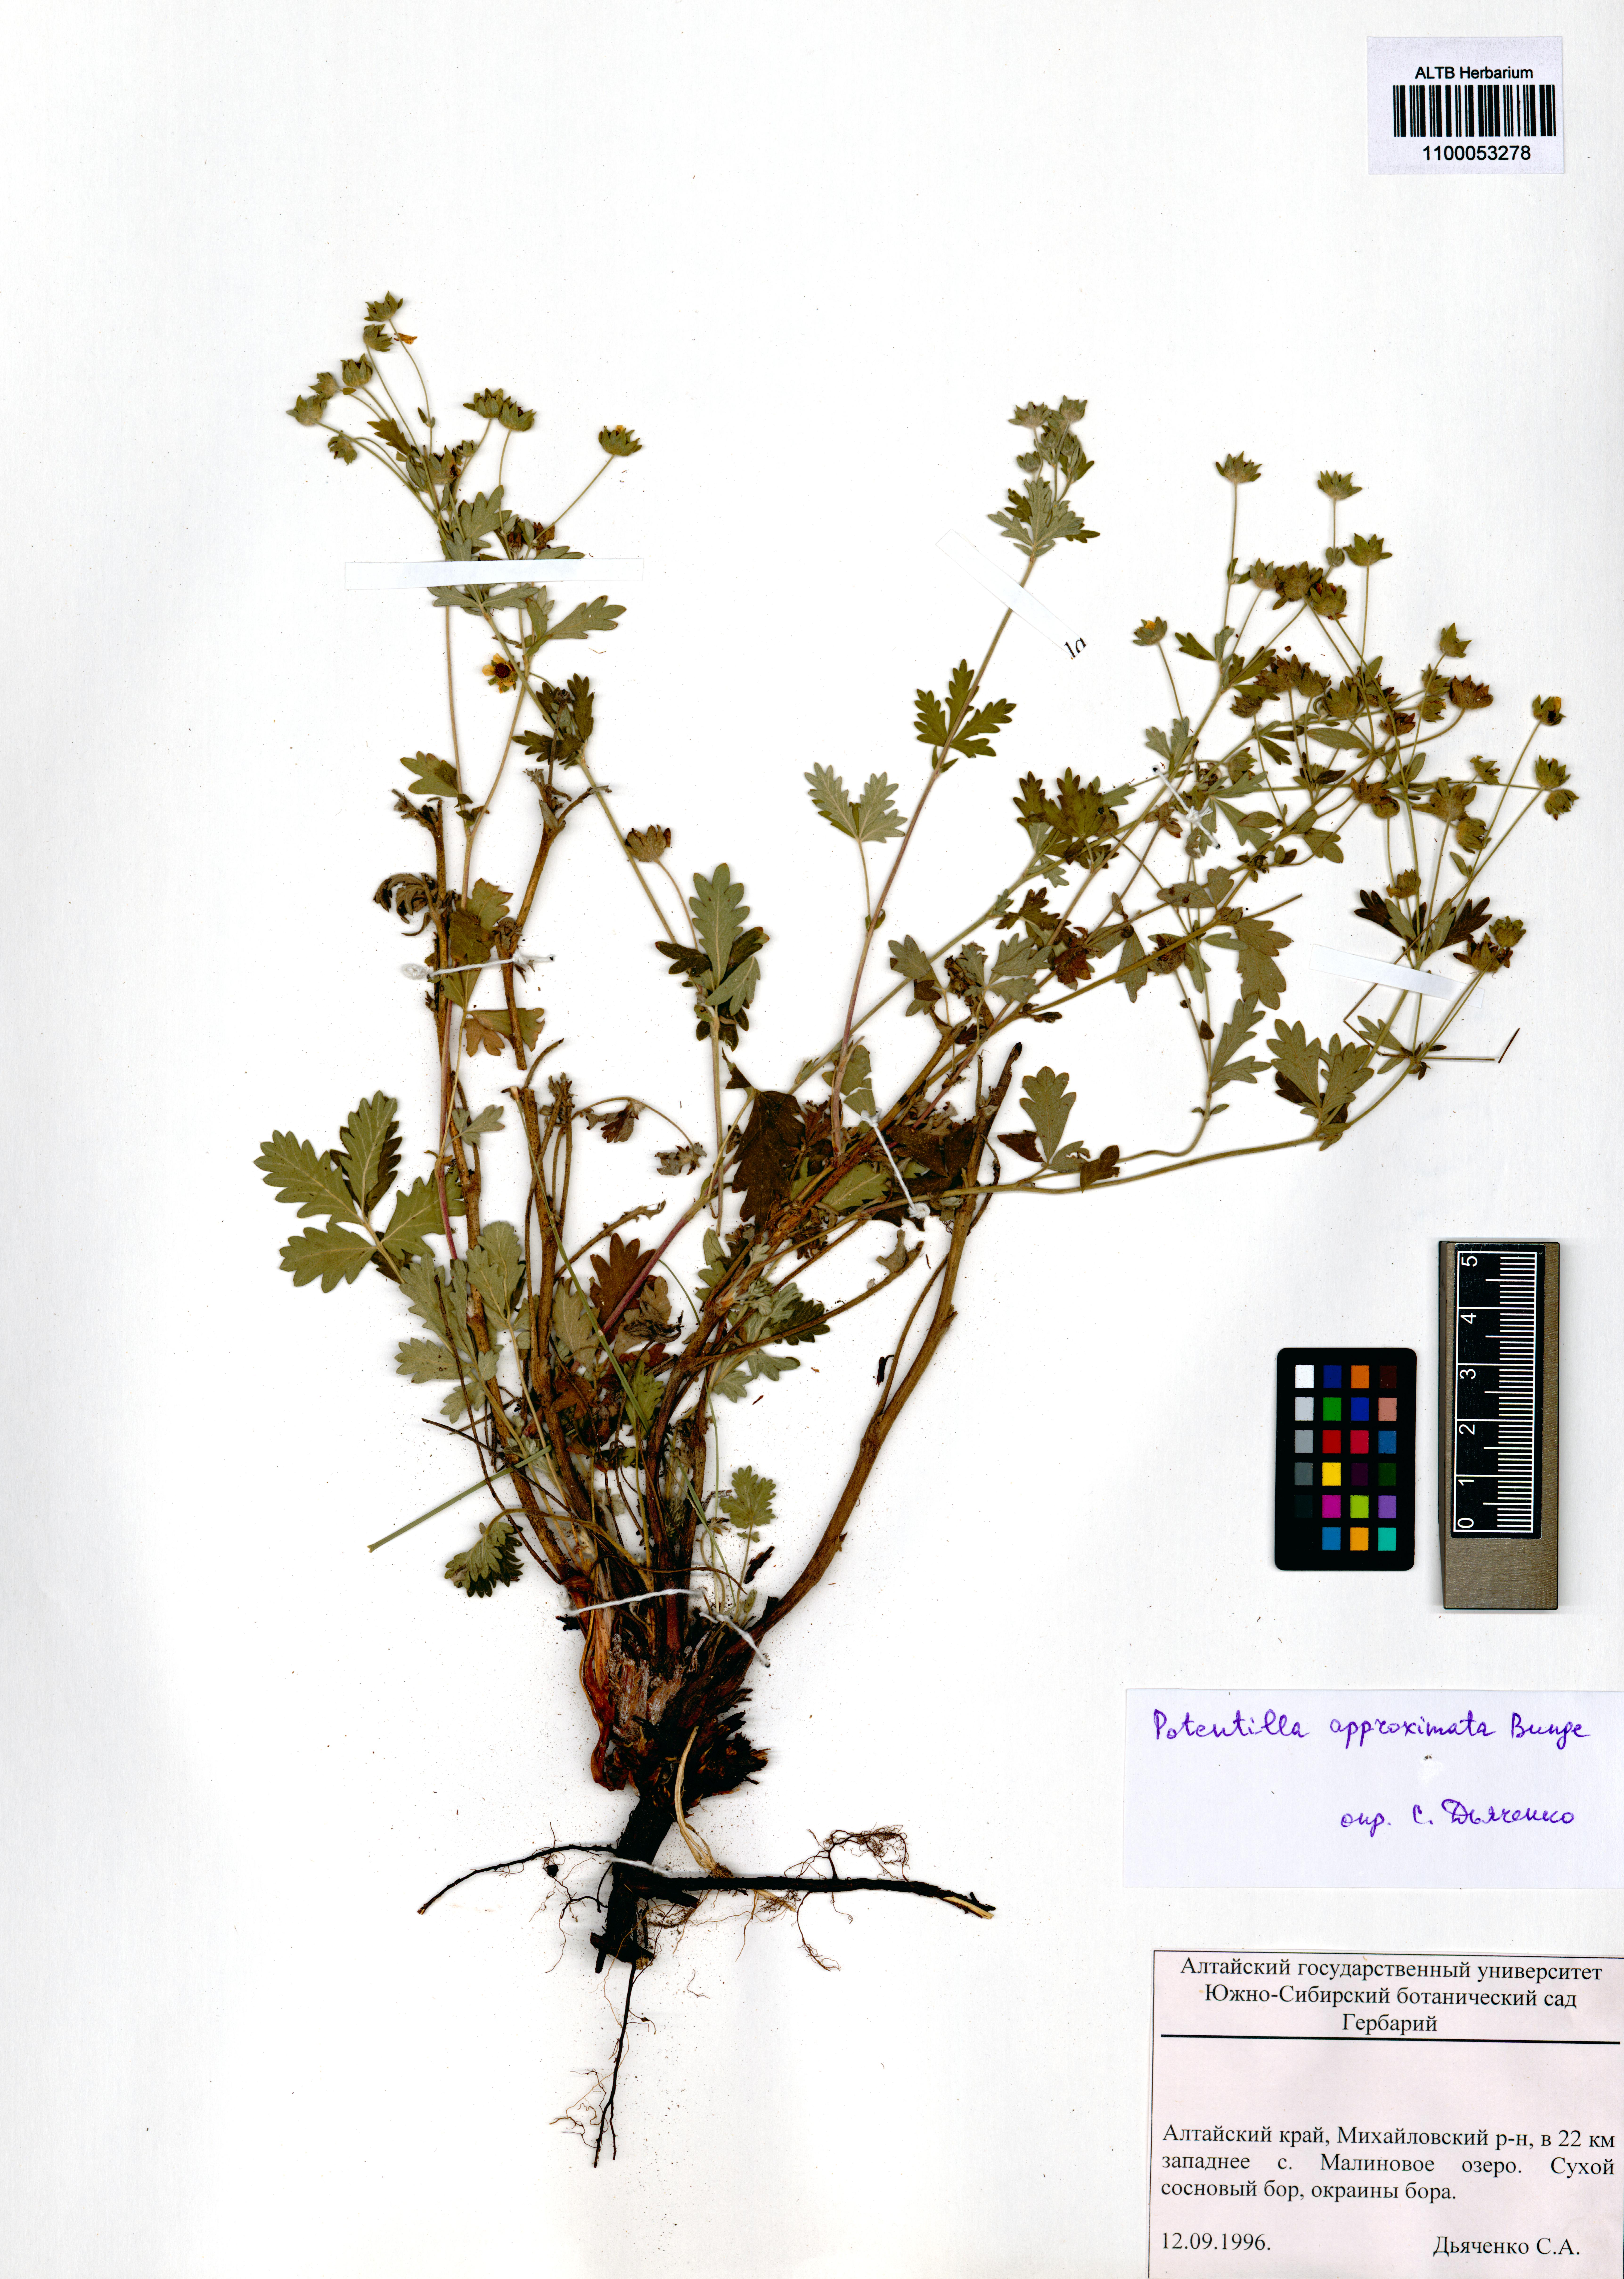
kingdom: Plantae
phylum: Tracheophyta
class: Magnoliopsida
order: Rosales
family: Rosaceae
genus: Potentilla
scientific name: Potentilla conferta
